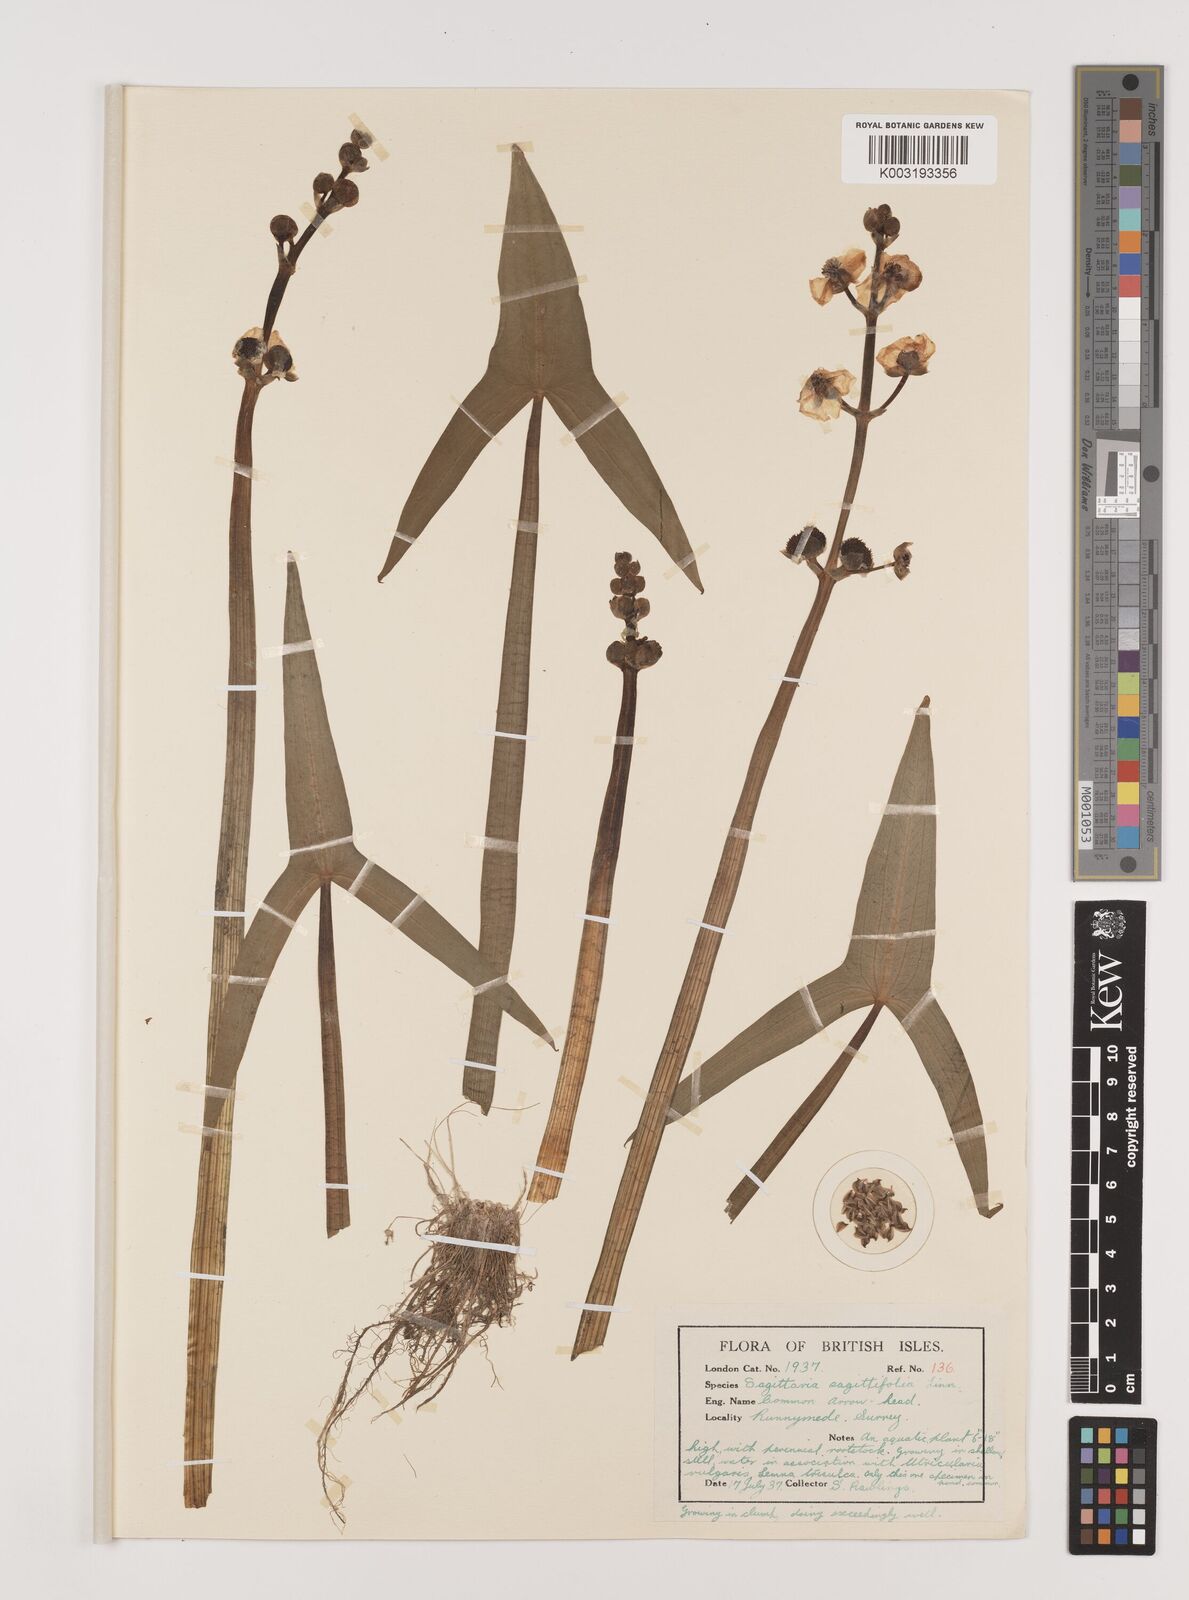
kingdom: Plantae
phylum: Tracheophyta
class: Liliopsida
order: Alismatales
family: Alismataceae
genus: Sagittaria
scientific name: Sagittaria sagittifolia
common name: Arrowhead
